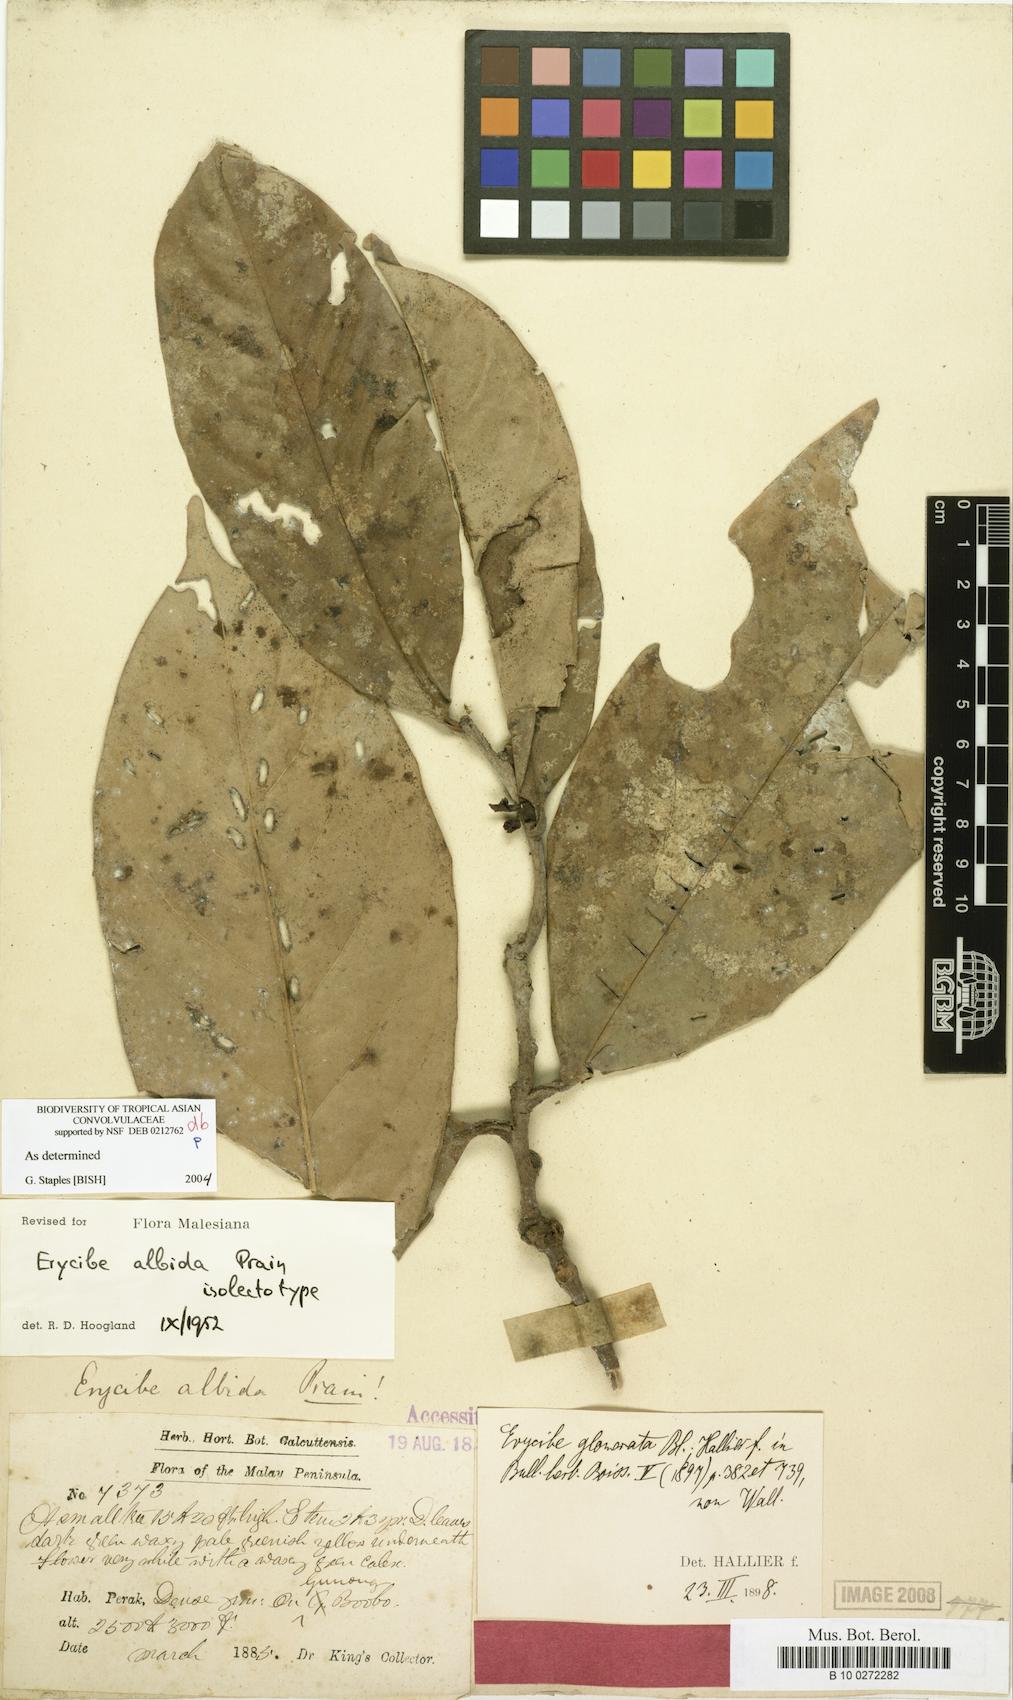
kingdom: Plantae
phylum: Tracheophyta
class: Magnoliopsida
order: Solanales
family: Convolvulaceae
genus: Erycibe
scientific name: Erycibe albida
